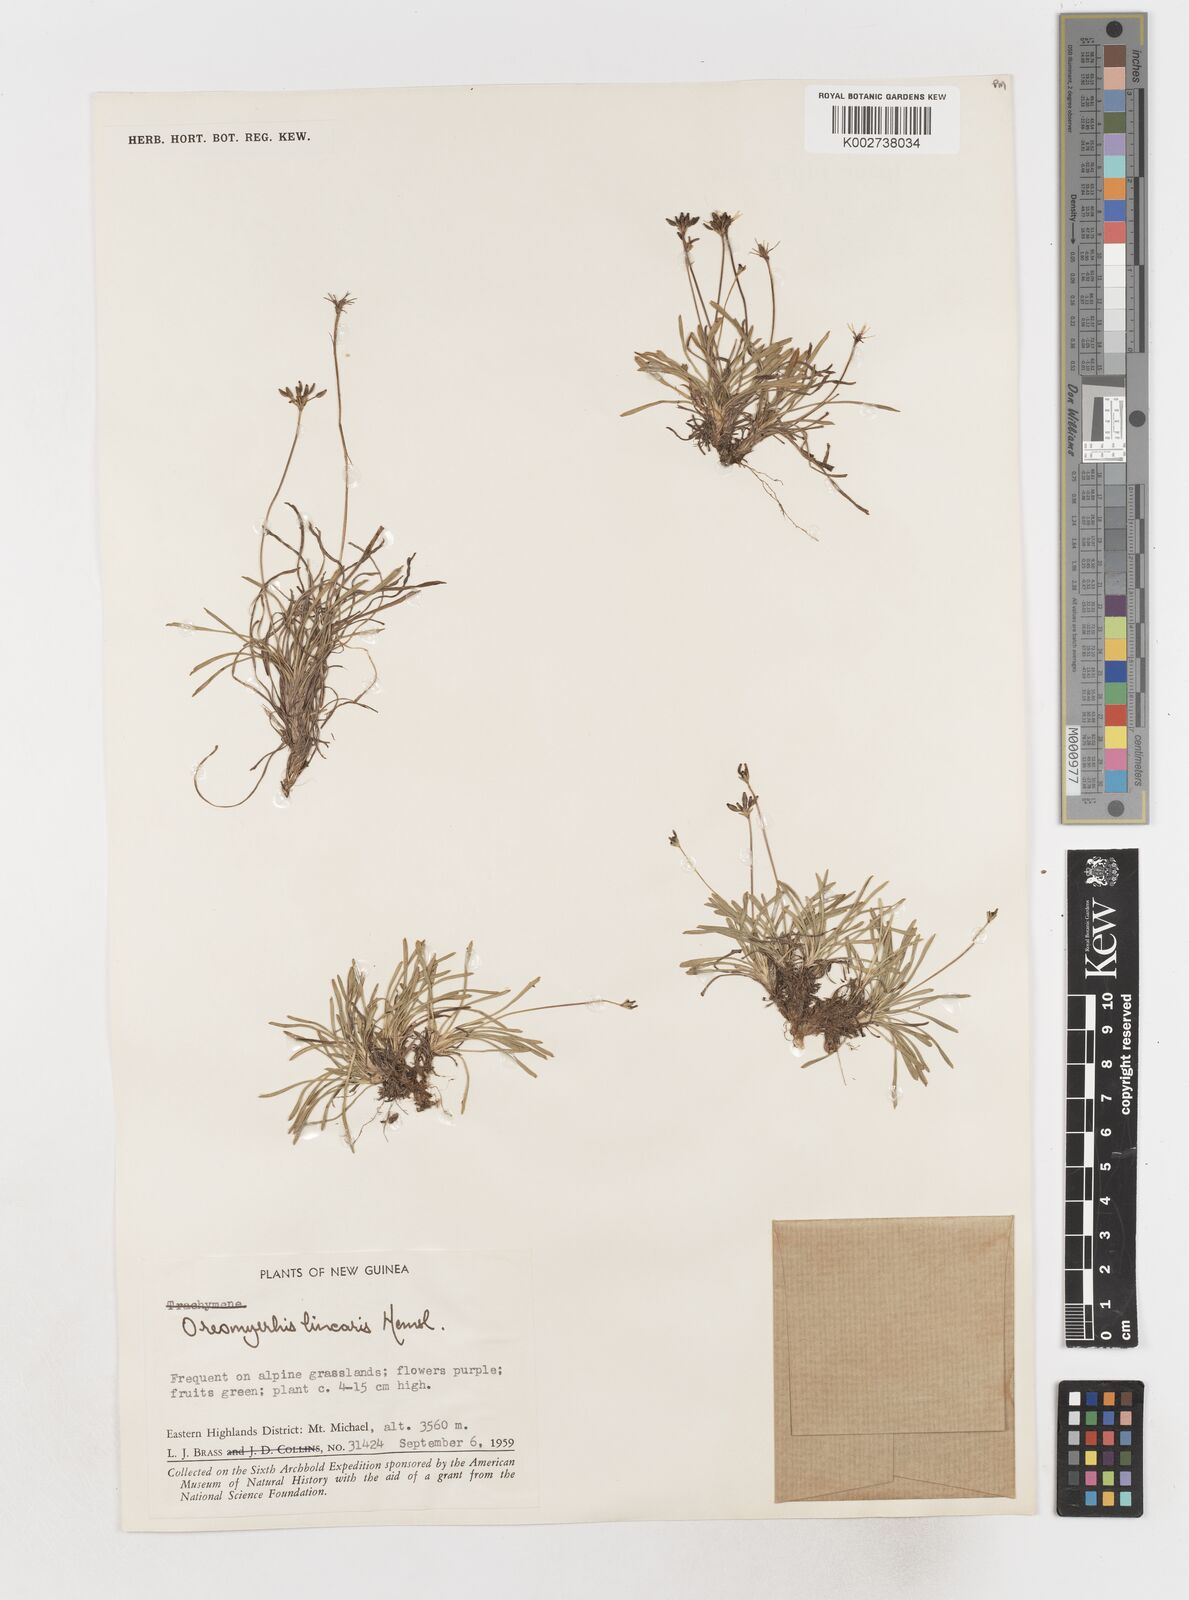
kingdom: Plantae
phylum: Tracheophyta
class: Magnoliopsida
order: Apiales
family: Apiaceae
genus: Chaerophyllum
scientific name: Chaerophyllum lineare
